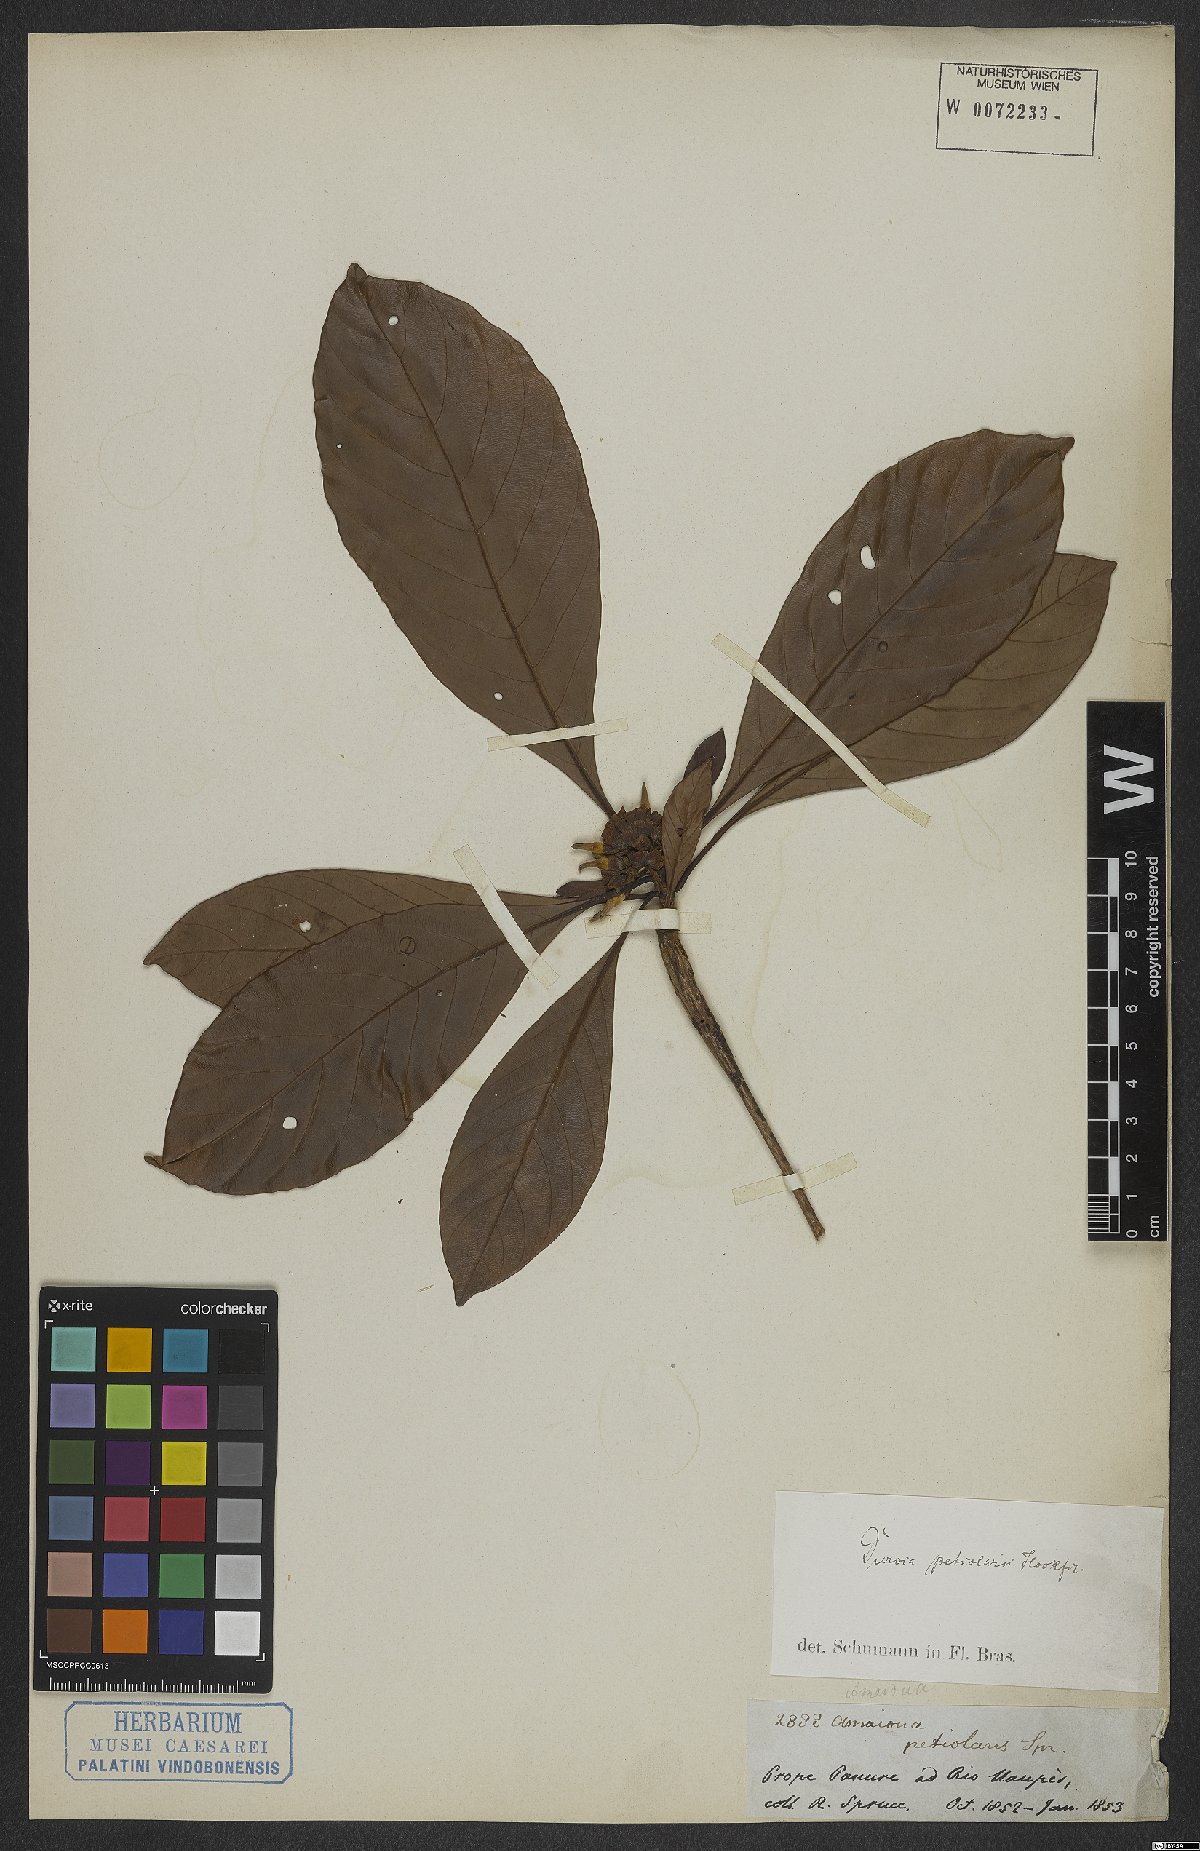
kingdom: Plantae
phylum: Tracheophyta
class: Magnoliopsida
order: Gentianales
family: Rubiaceae
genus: Duroia
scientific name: Duroia petiolaris
